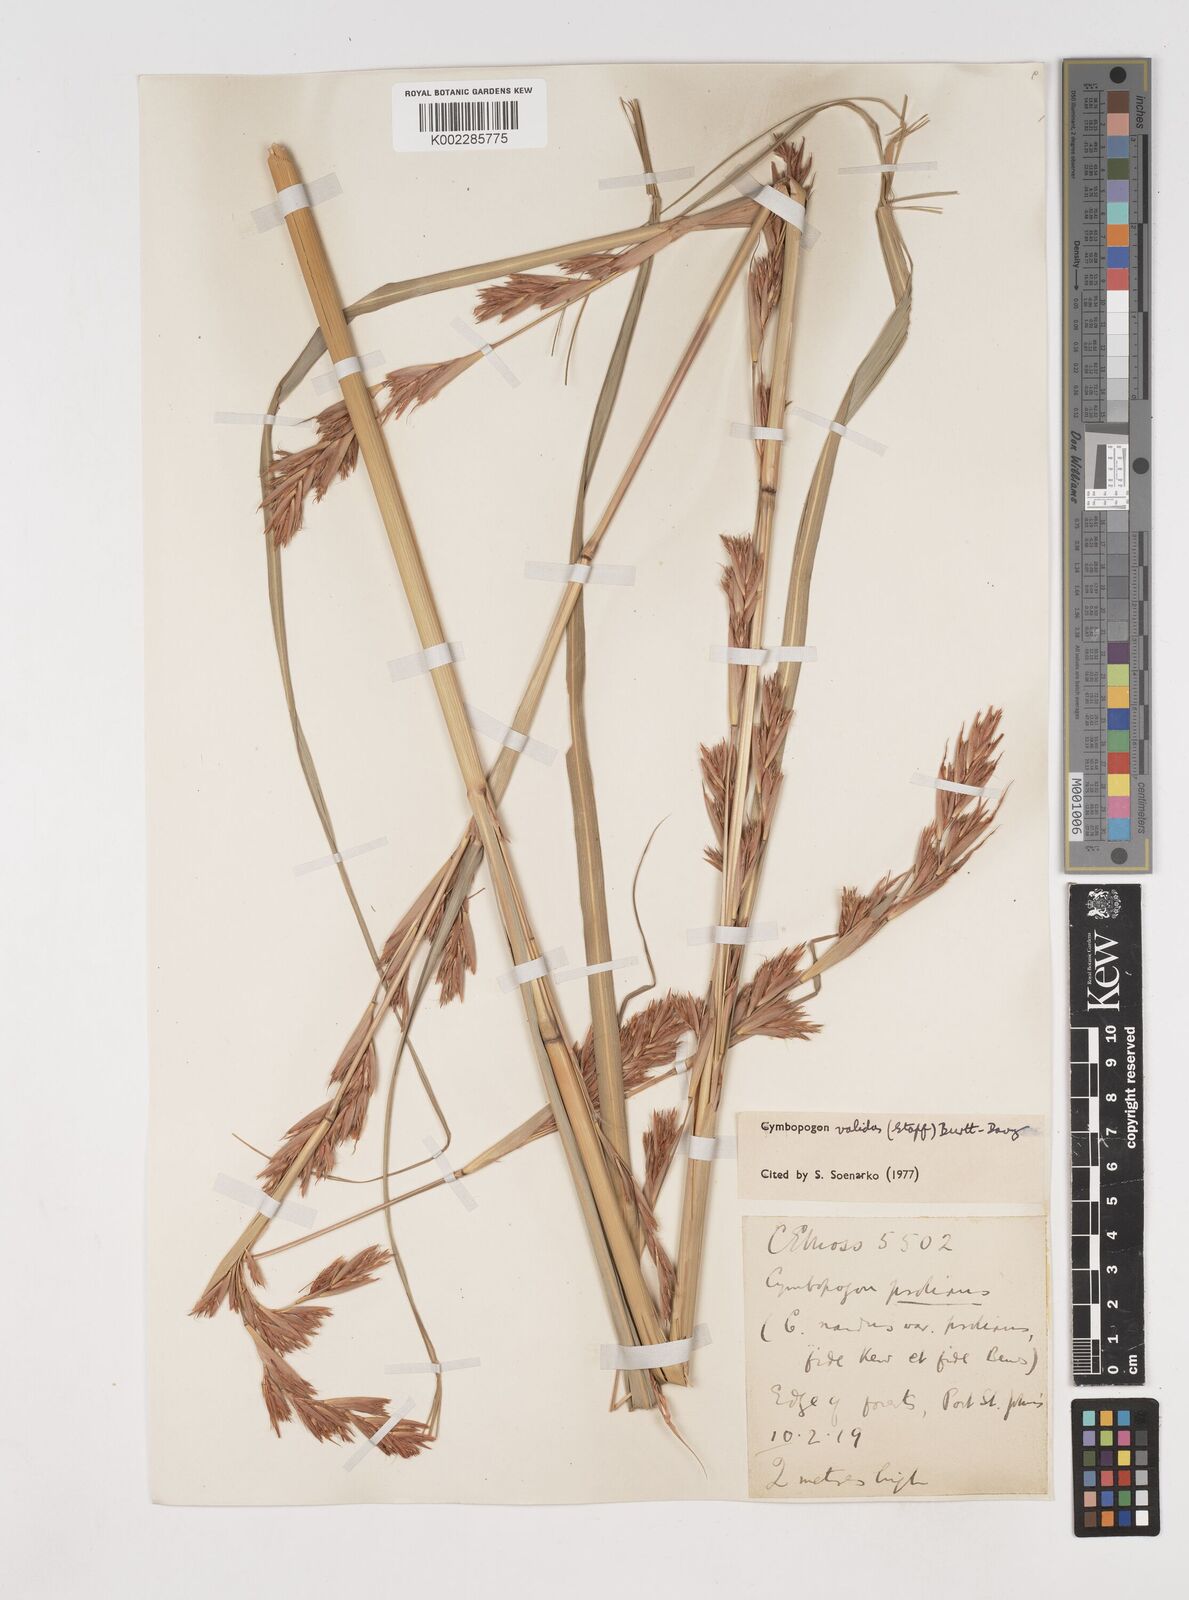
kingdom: Plantae
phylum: Tracheophyta
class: Liliopsida
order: Poales
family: Poaceae
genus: Cymbopogon
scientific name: Cymbopogon nardus
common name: Giant turpentine grass
